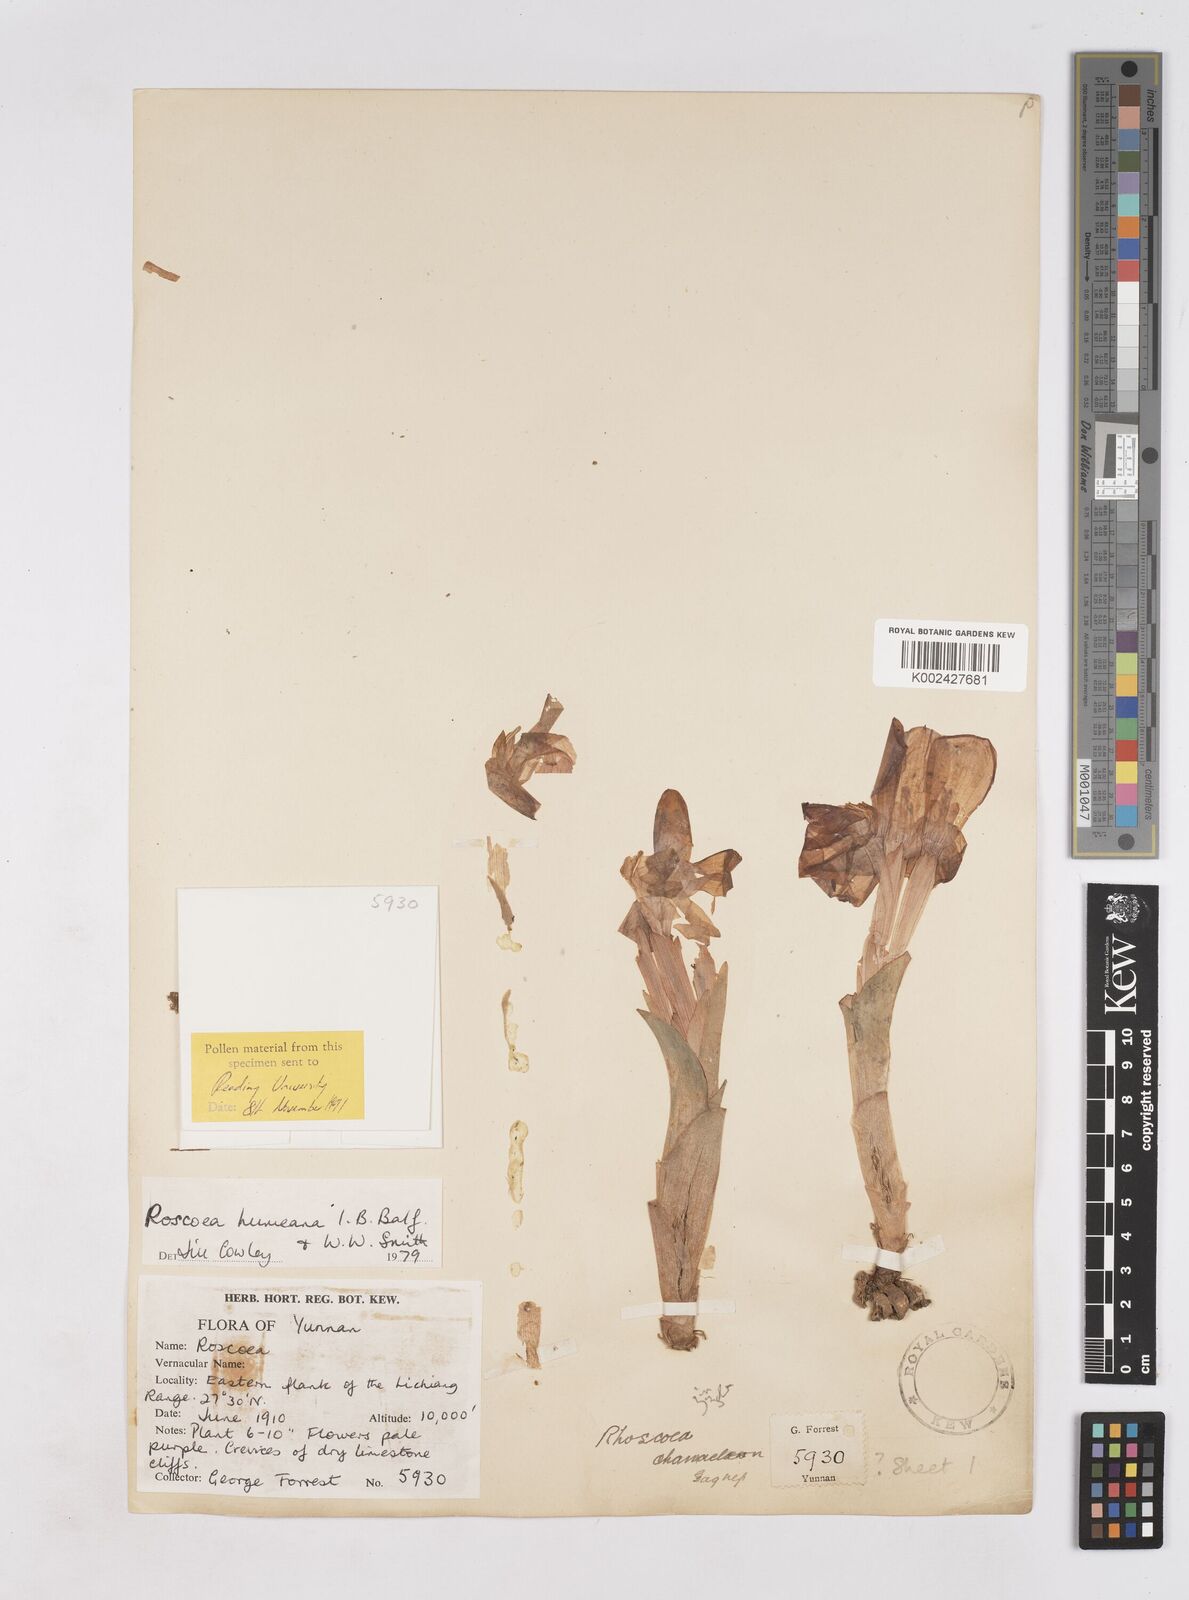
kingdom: Plantae
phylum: Tracheophyta
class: Liliopsida
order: Zingiberales
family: Zingiberaceae
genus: Roscoea
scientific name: Roscoea humeana
